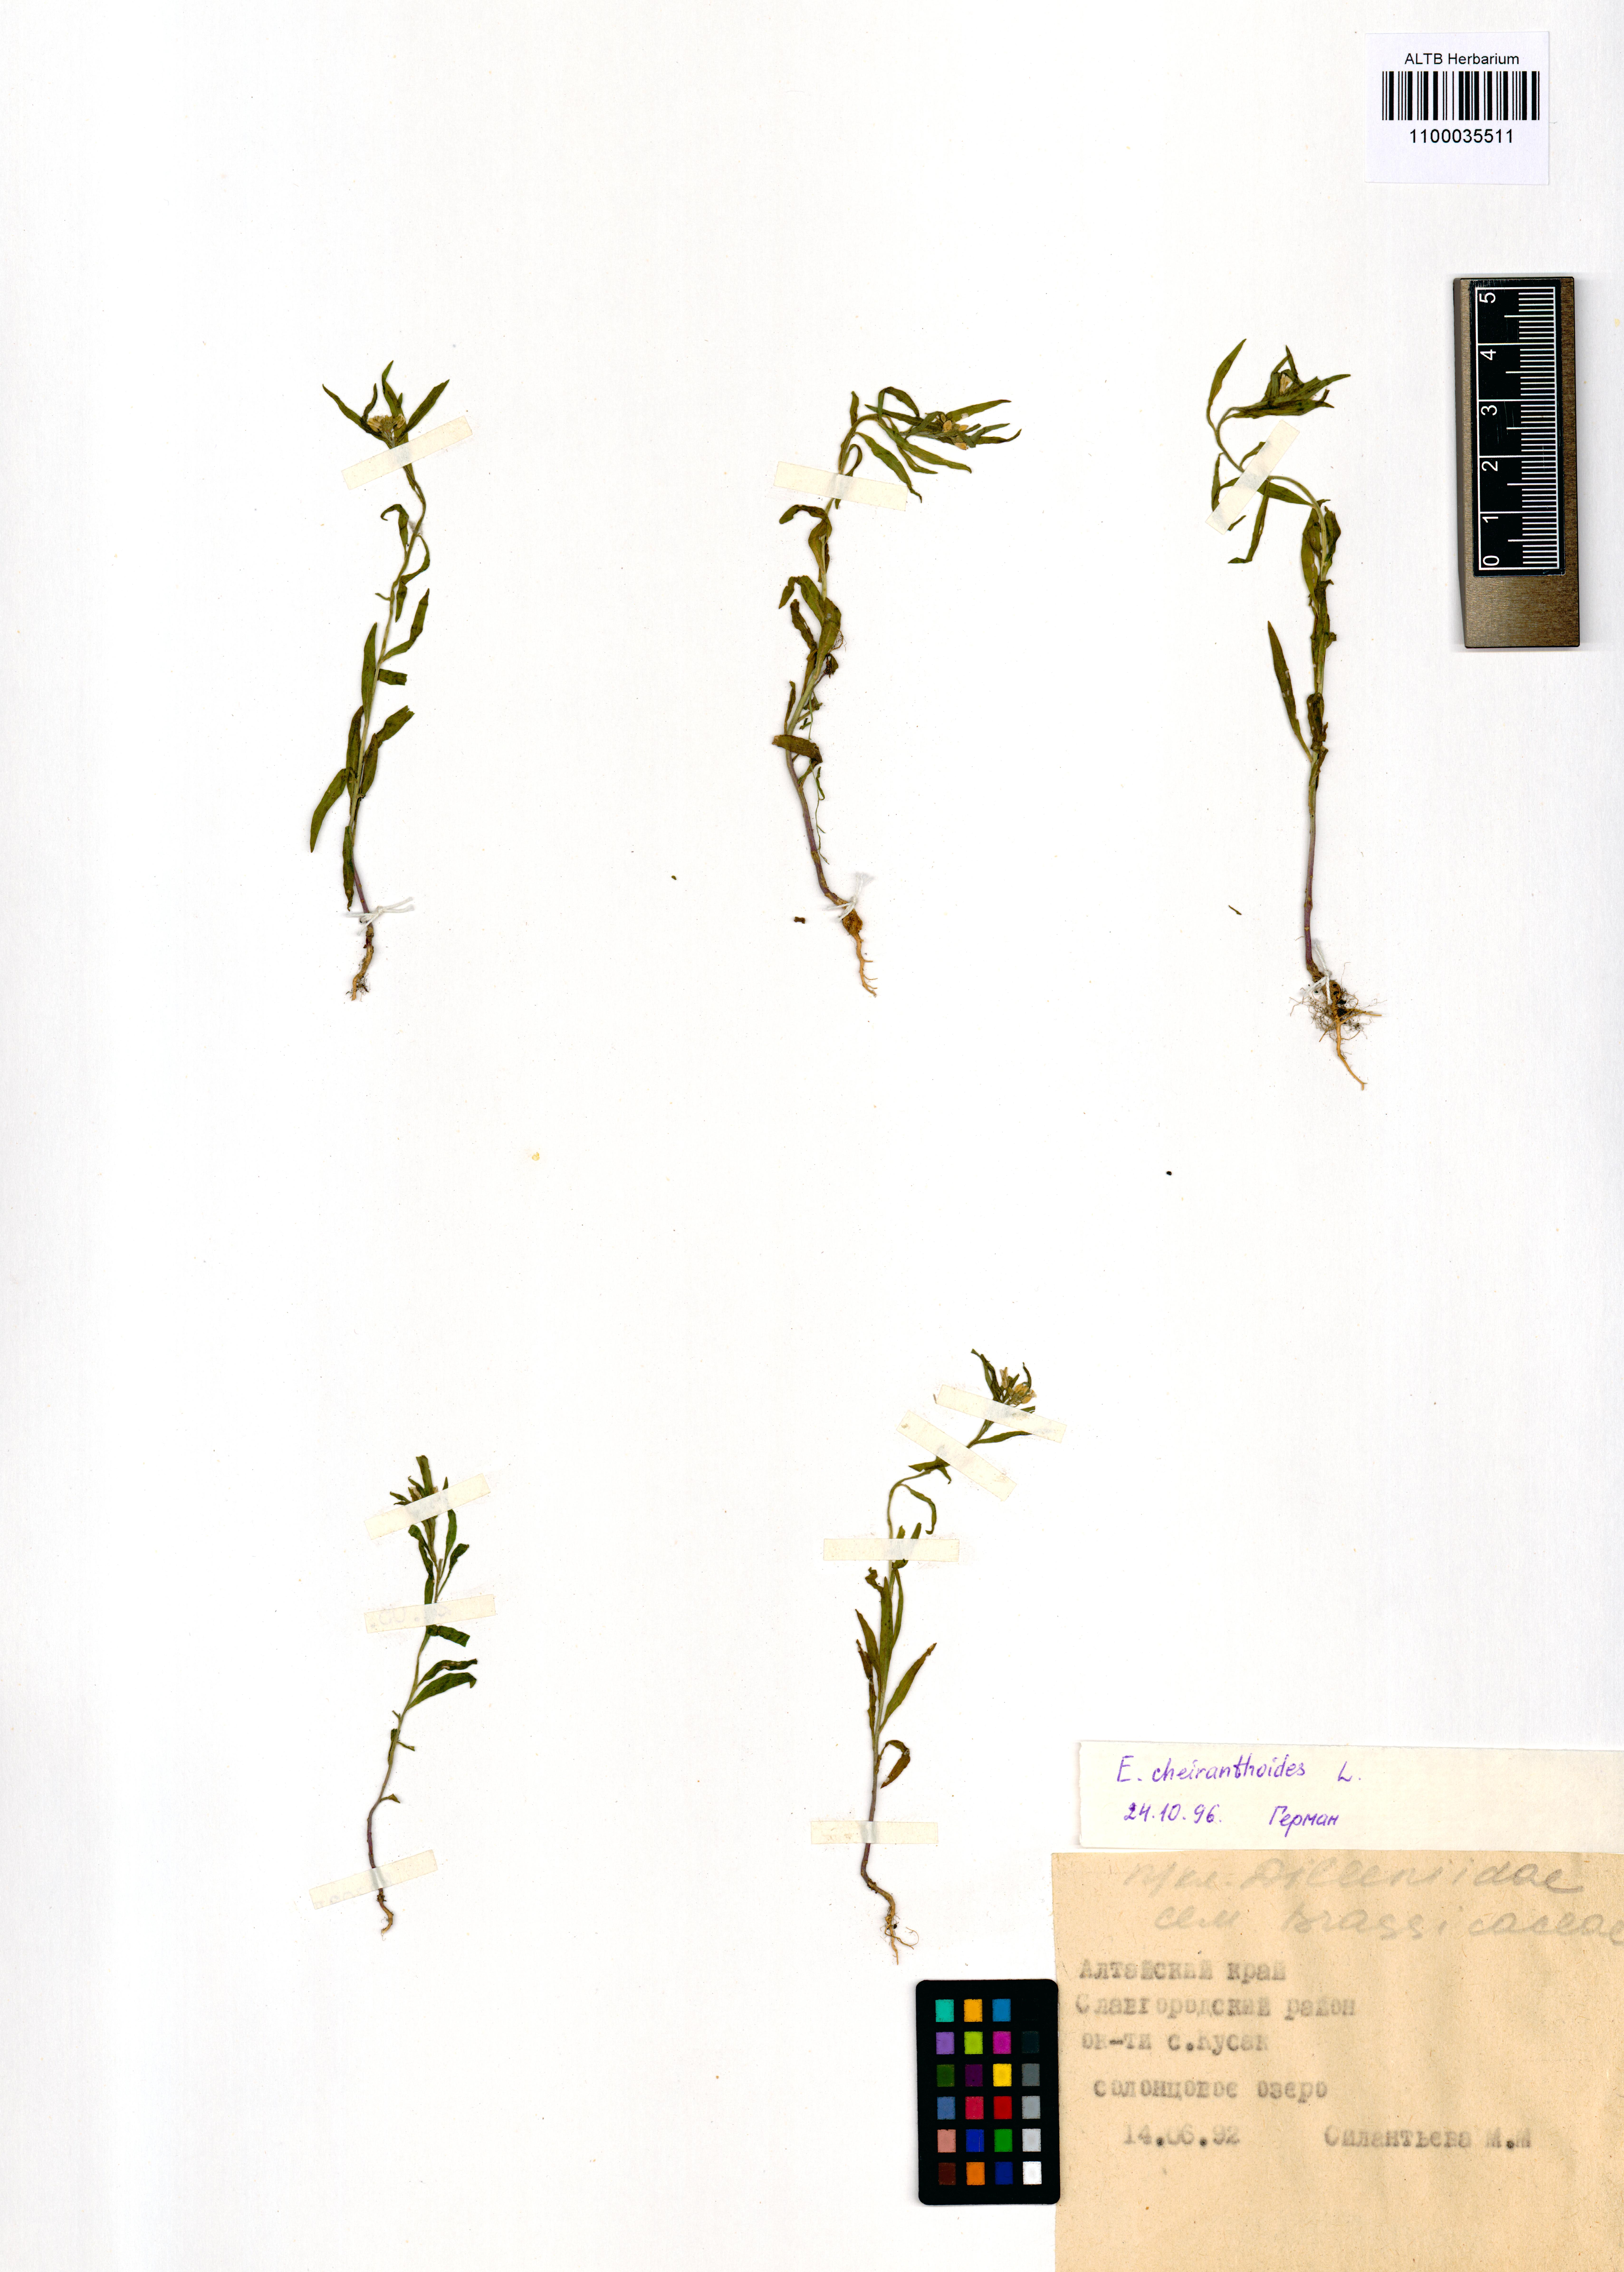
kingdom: Plantae
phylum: Tracheophyta
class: Magnoliopsida
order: Brassicales
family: Brassicaceae
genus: Erysimum
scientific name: Erysimum cheiranthoides
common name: Treacle mustard
